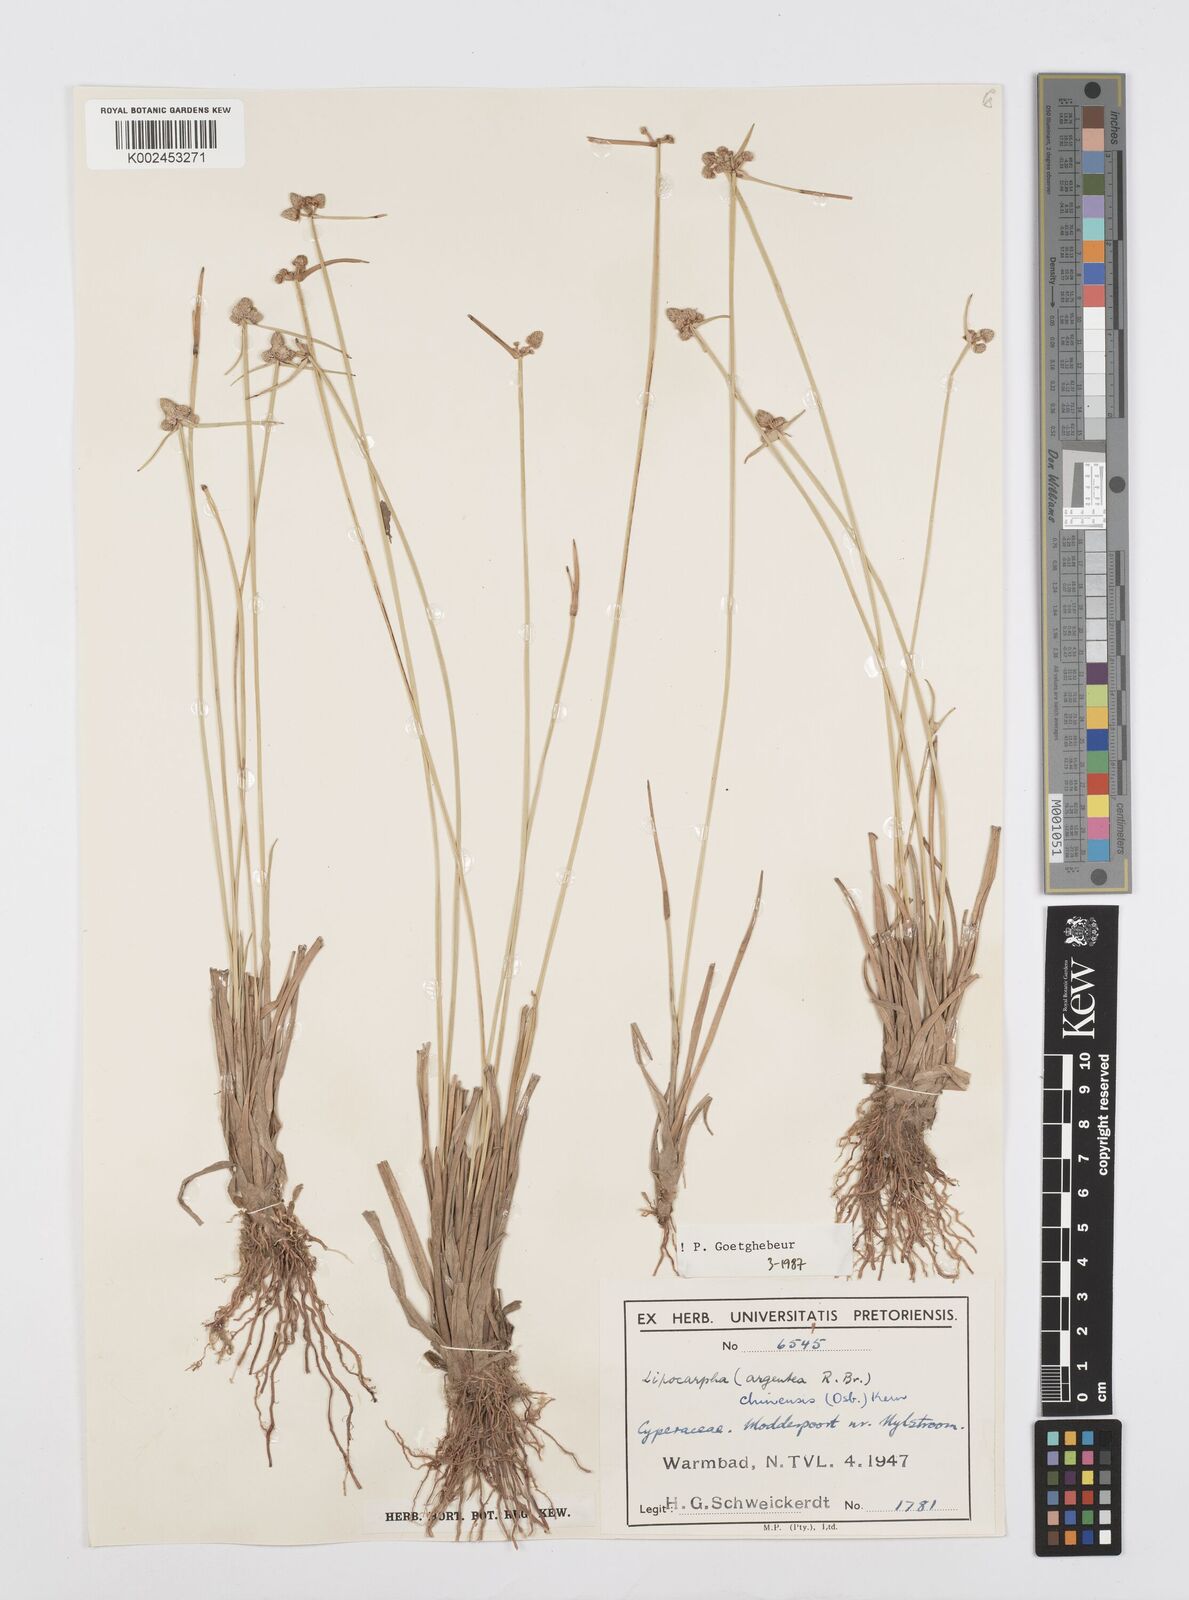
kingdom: Plantae
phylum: Tracheophyta
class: Liliopsida
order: Poales
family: Cyperaceae
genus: Cyperus
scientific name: Cyperus albescens
